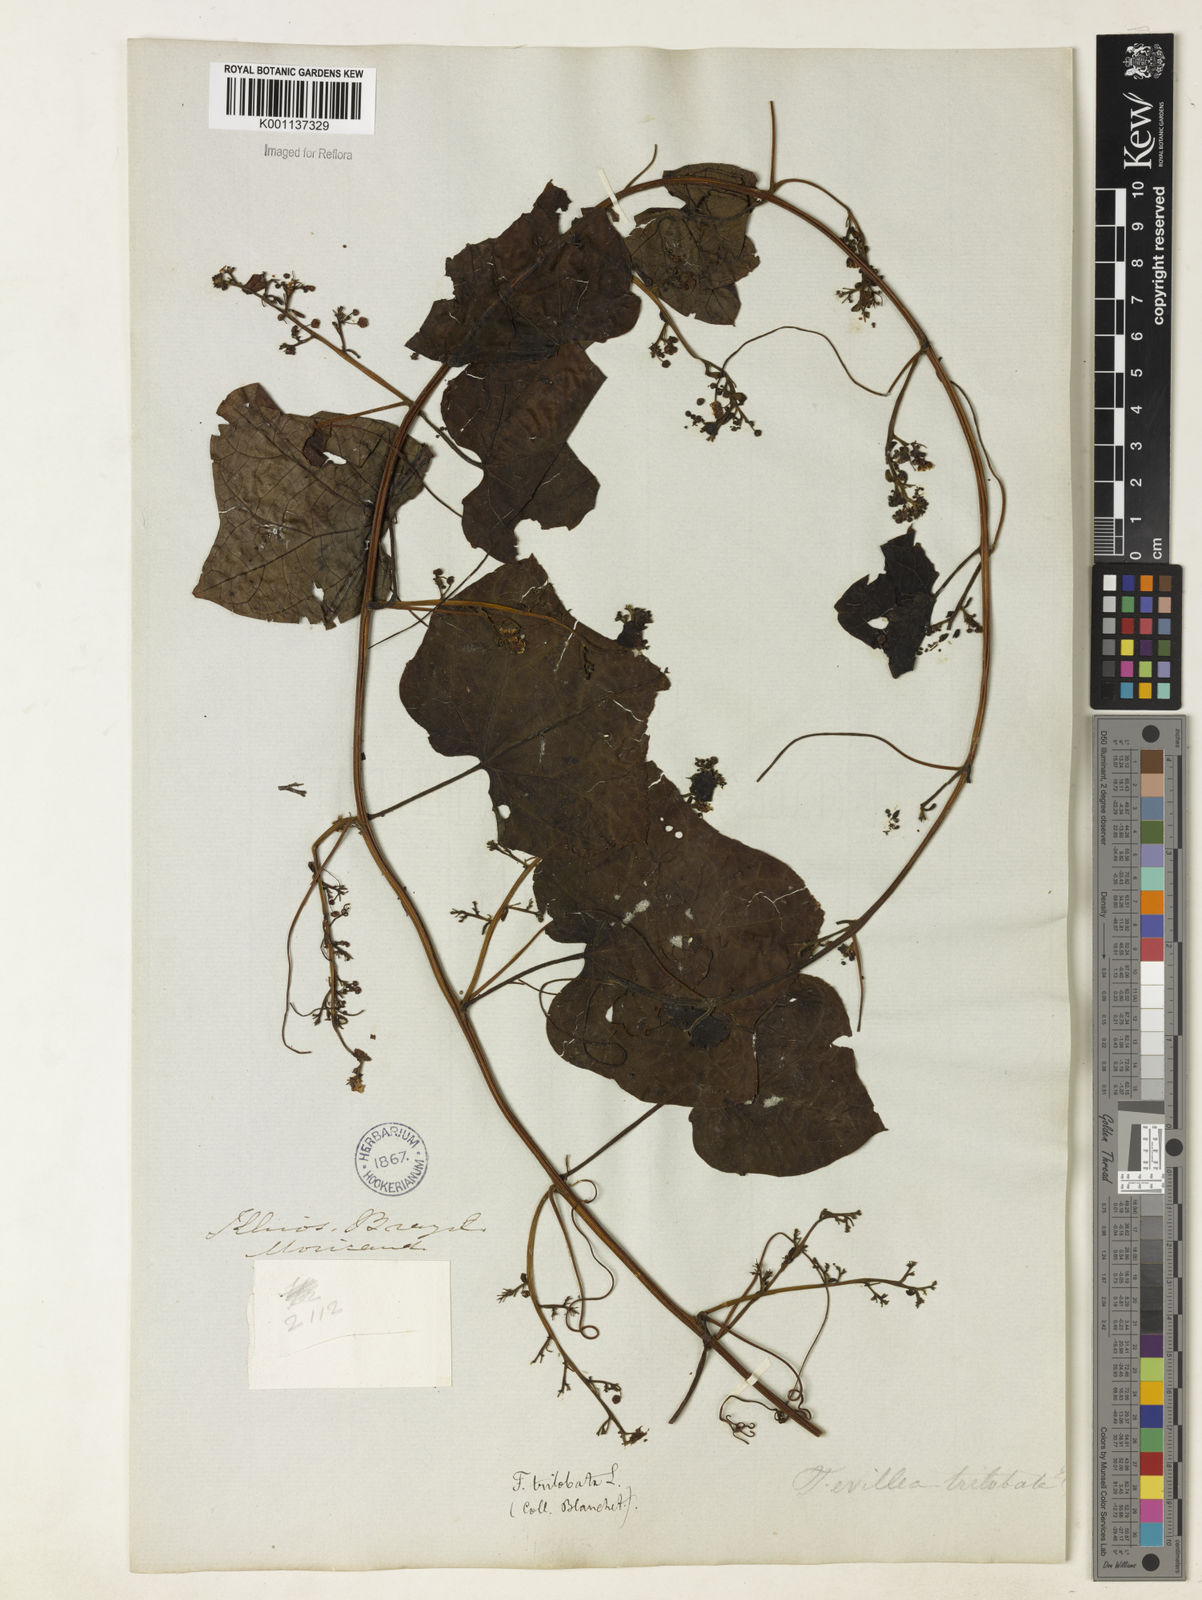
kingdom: Plantae
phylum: Tracheophyta
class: Magnoliopsida
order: Cucurbitales
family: Cucurbitaceae
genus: Fevillea
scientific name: Fevillea trilobata
